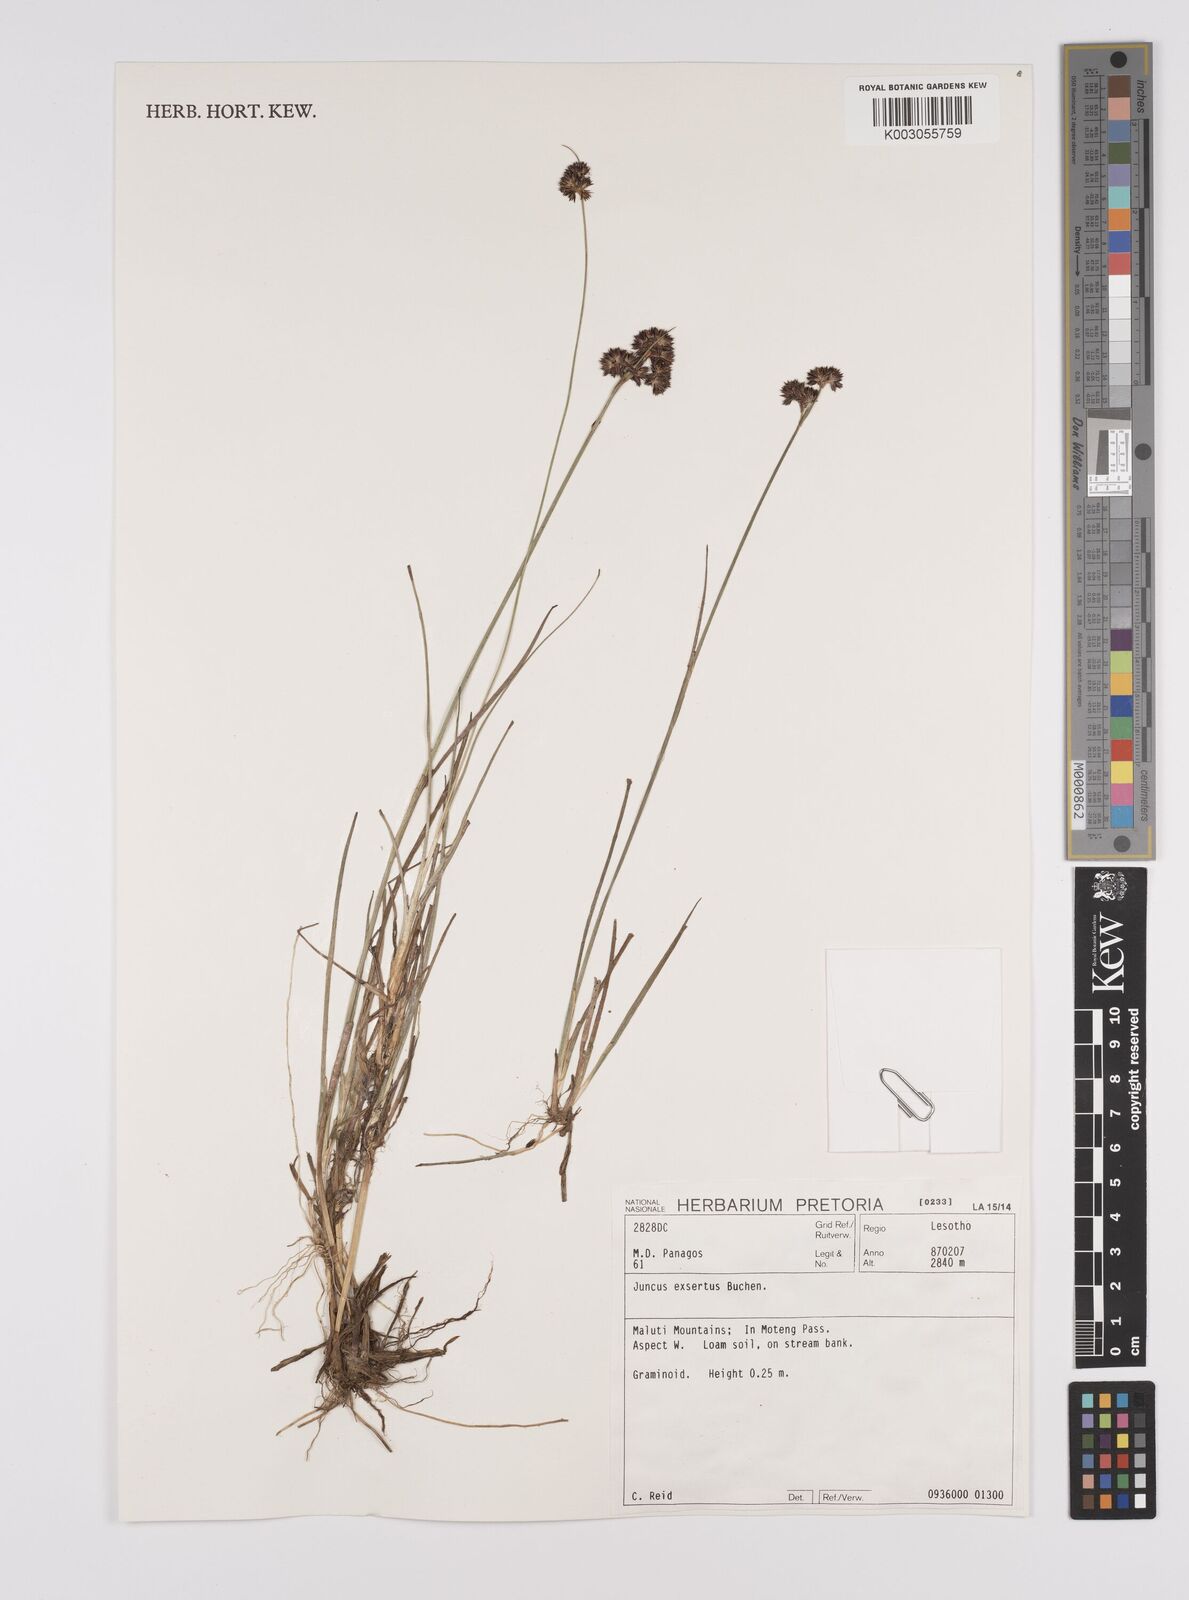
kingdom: Plantae
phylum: Tracheophyta
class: Liliopsida
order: Poales
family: Juncaceae
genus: Juncus
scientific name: Juncus exsertus
